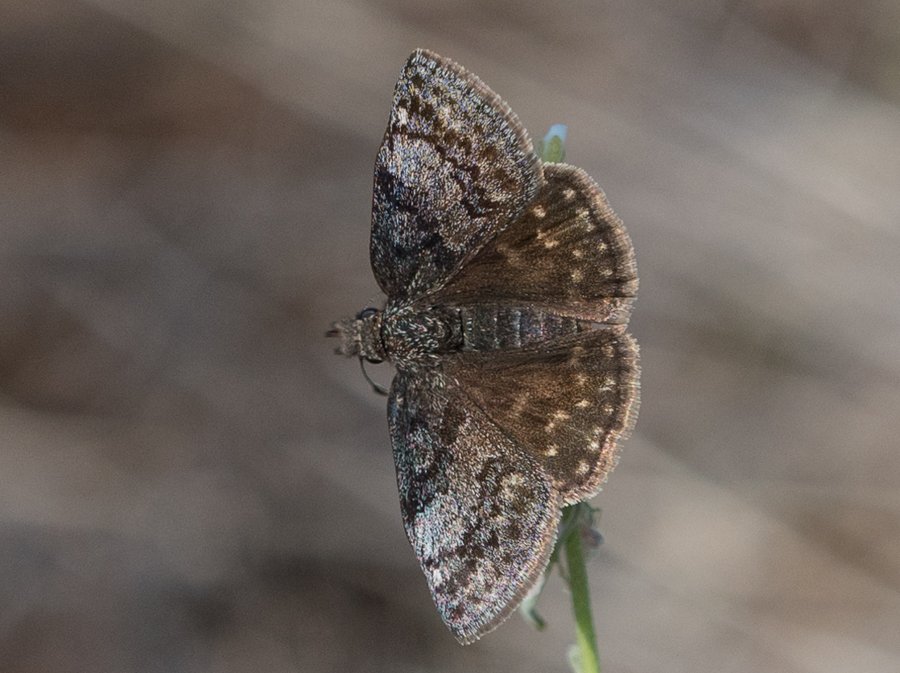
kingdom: Animalia
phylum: Arthropoda
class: Insecta
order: Lepidoptera
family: Hesperiidae
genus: Erynnis
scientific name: Erynnis icelus
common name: Dreamy Duskywing
